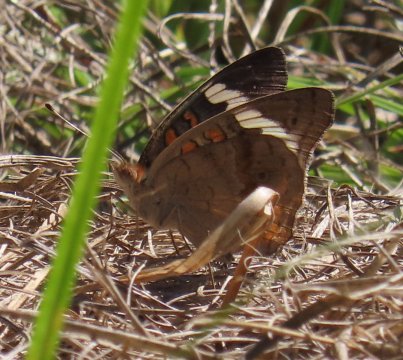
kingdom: Animalia
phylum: Arthropoda
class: Insecta
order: Lepidoptera
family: Nymphalidae
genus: Junonia
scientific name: Junonia coenia
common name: Common Buckeye
